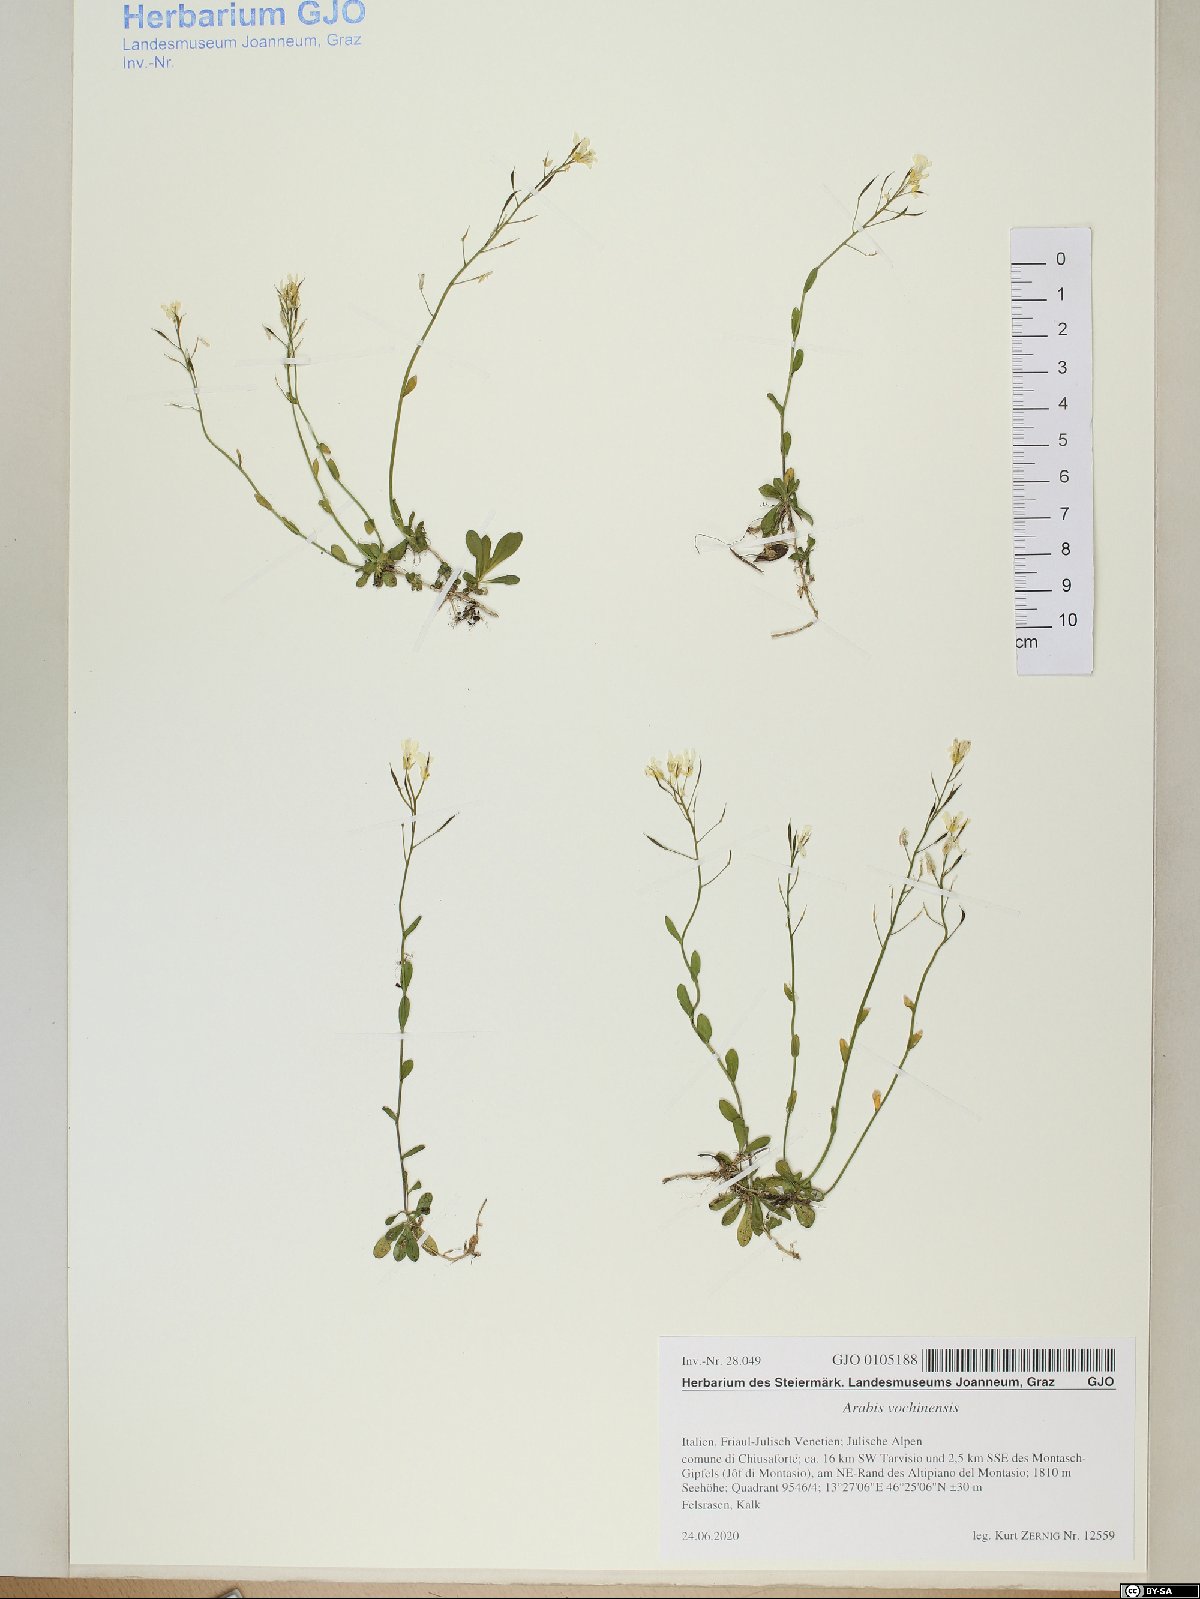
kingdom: Plantae
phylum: Tracheophyta
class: Magnoliopsida
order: Brassicales
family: Brassicaceae
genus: Arabis
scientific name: Arabis vochinensis
